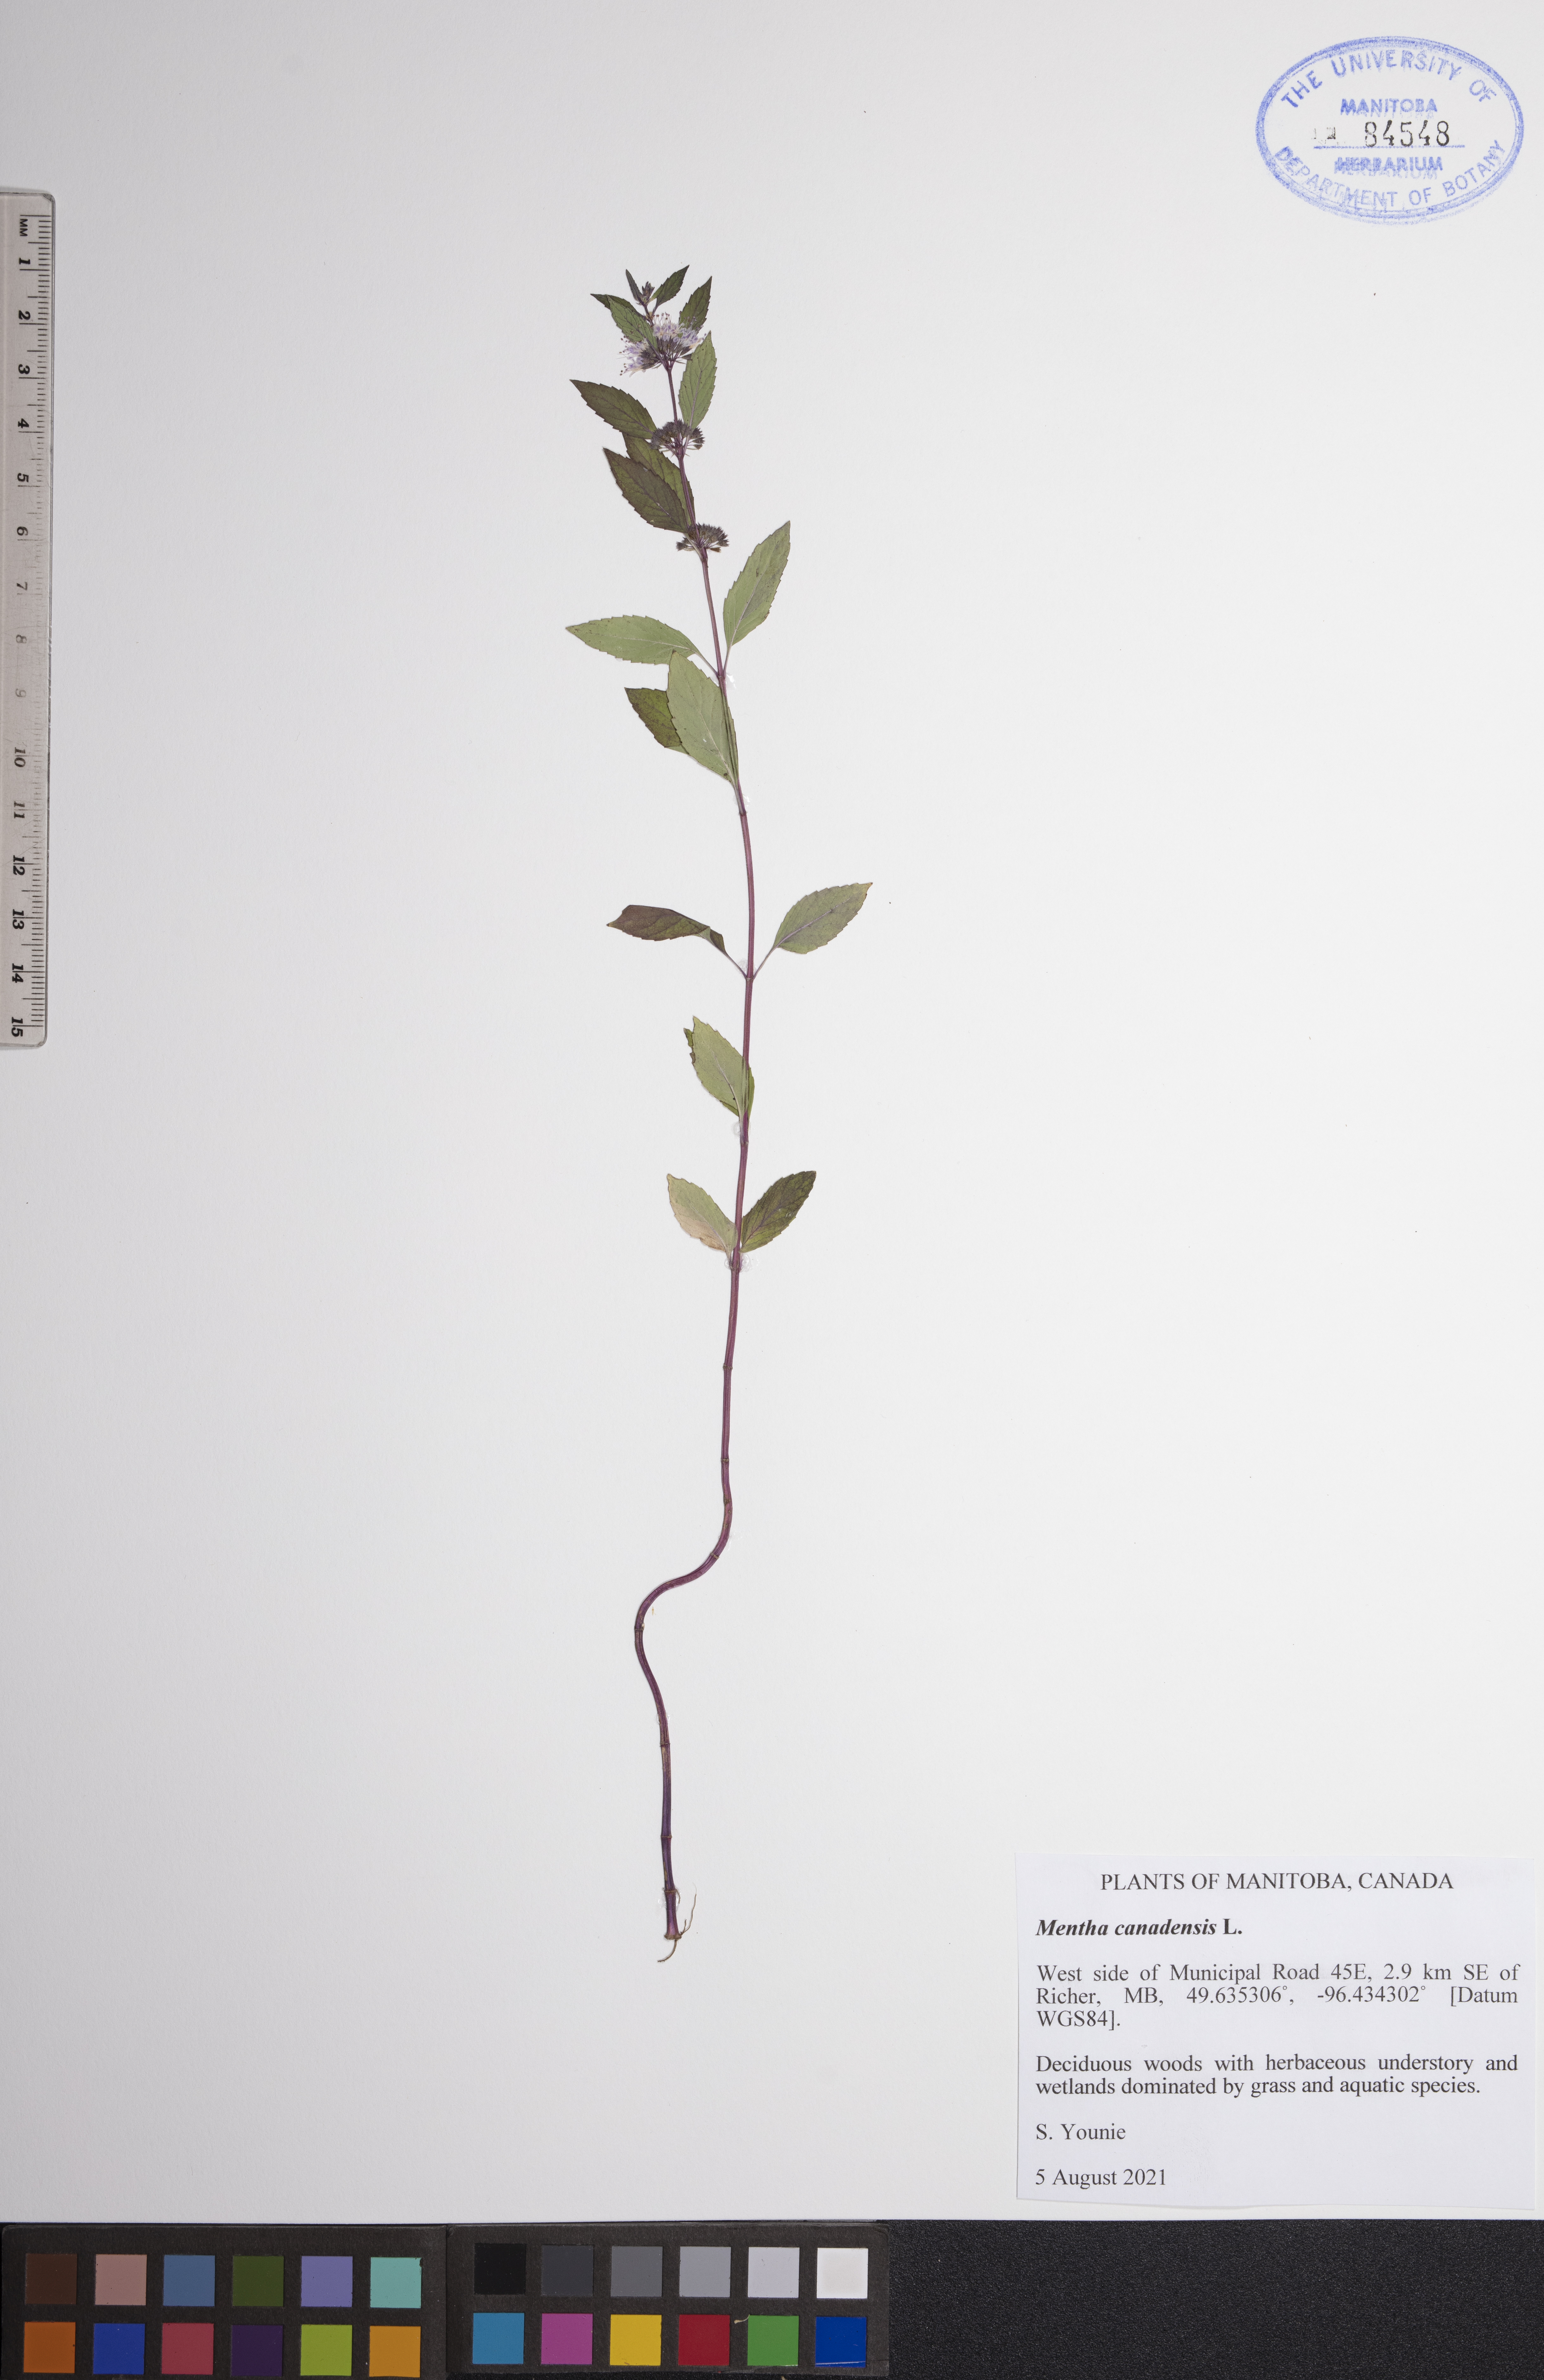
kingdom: Plantae
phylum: Tracheophyta
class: Magnoliopsida
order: Lamiales
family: Lamiaceae
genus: Mentha
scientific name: Mentha canadensis
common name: American corn mint
